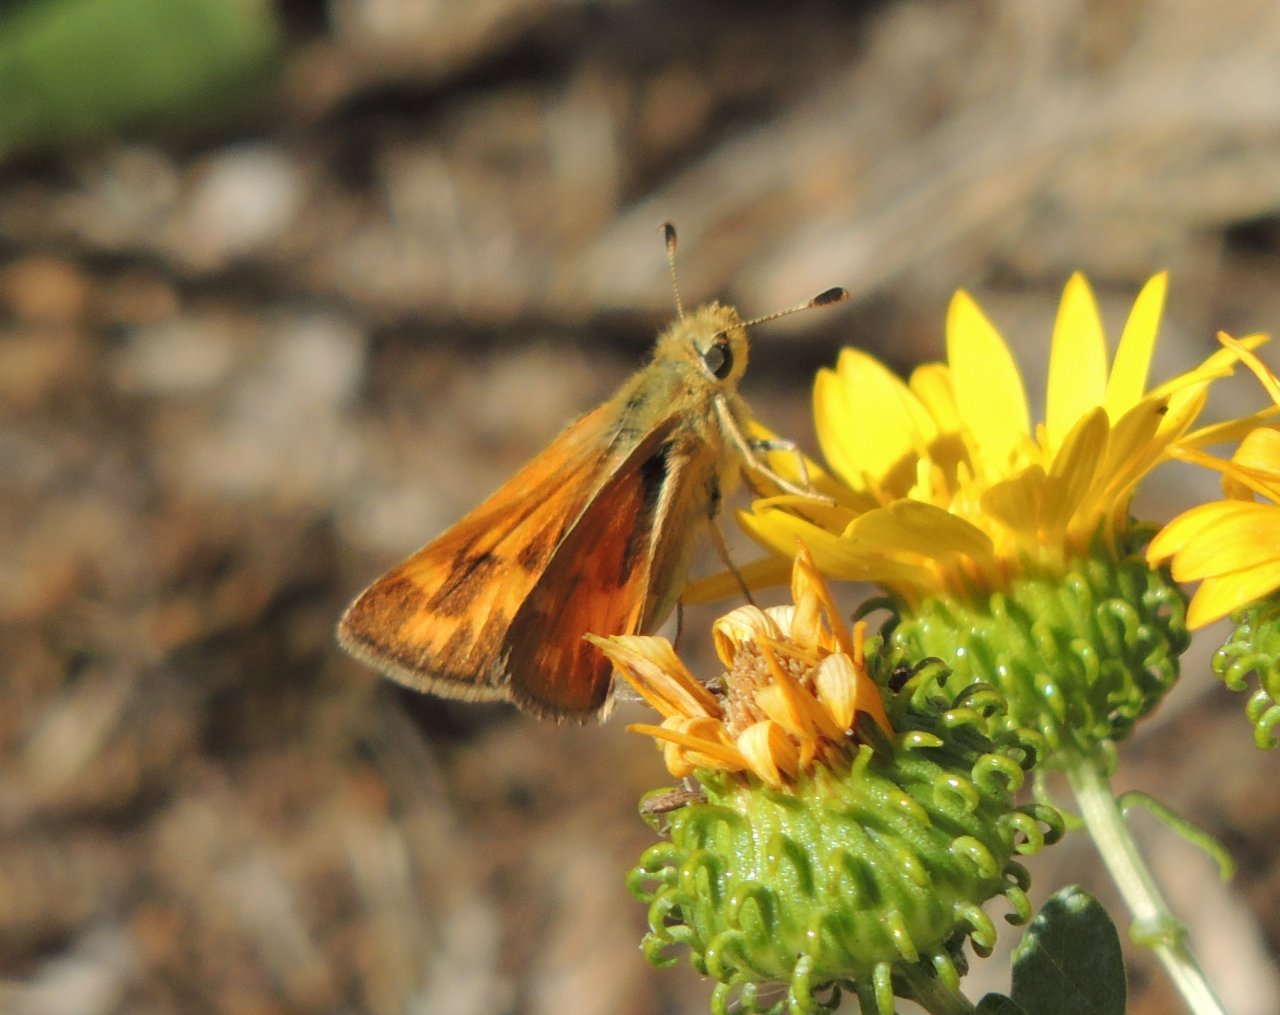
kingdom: Animalia
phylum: Arthropoda
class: Insecta
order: Lepidoptera
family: Hesperiidae
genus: Hesperia
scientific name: Hesperia comma
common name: Western Branded Skipper
